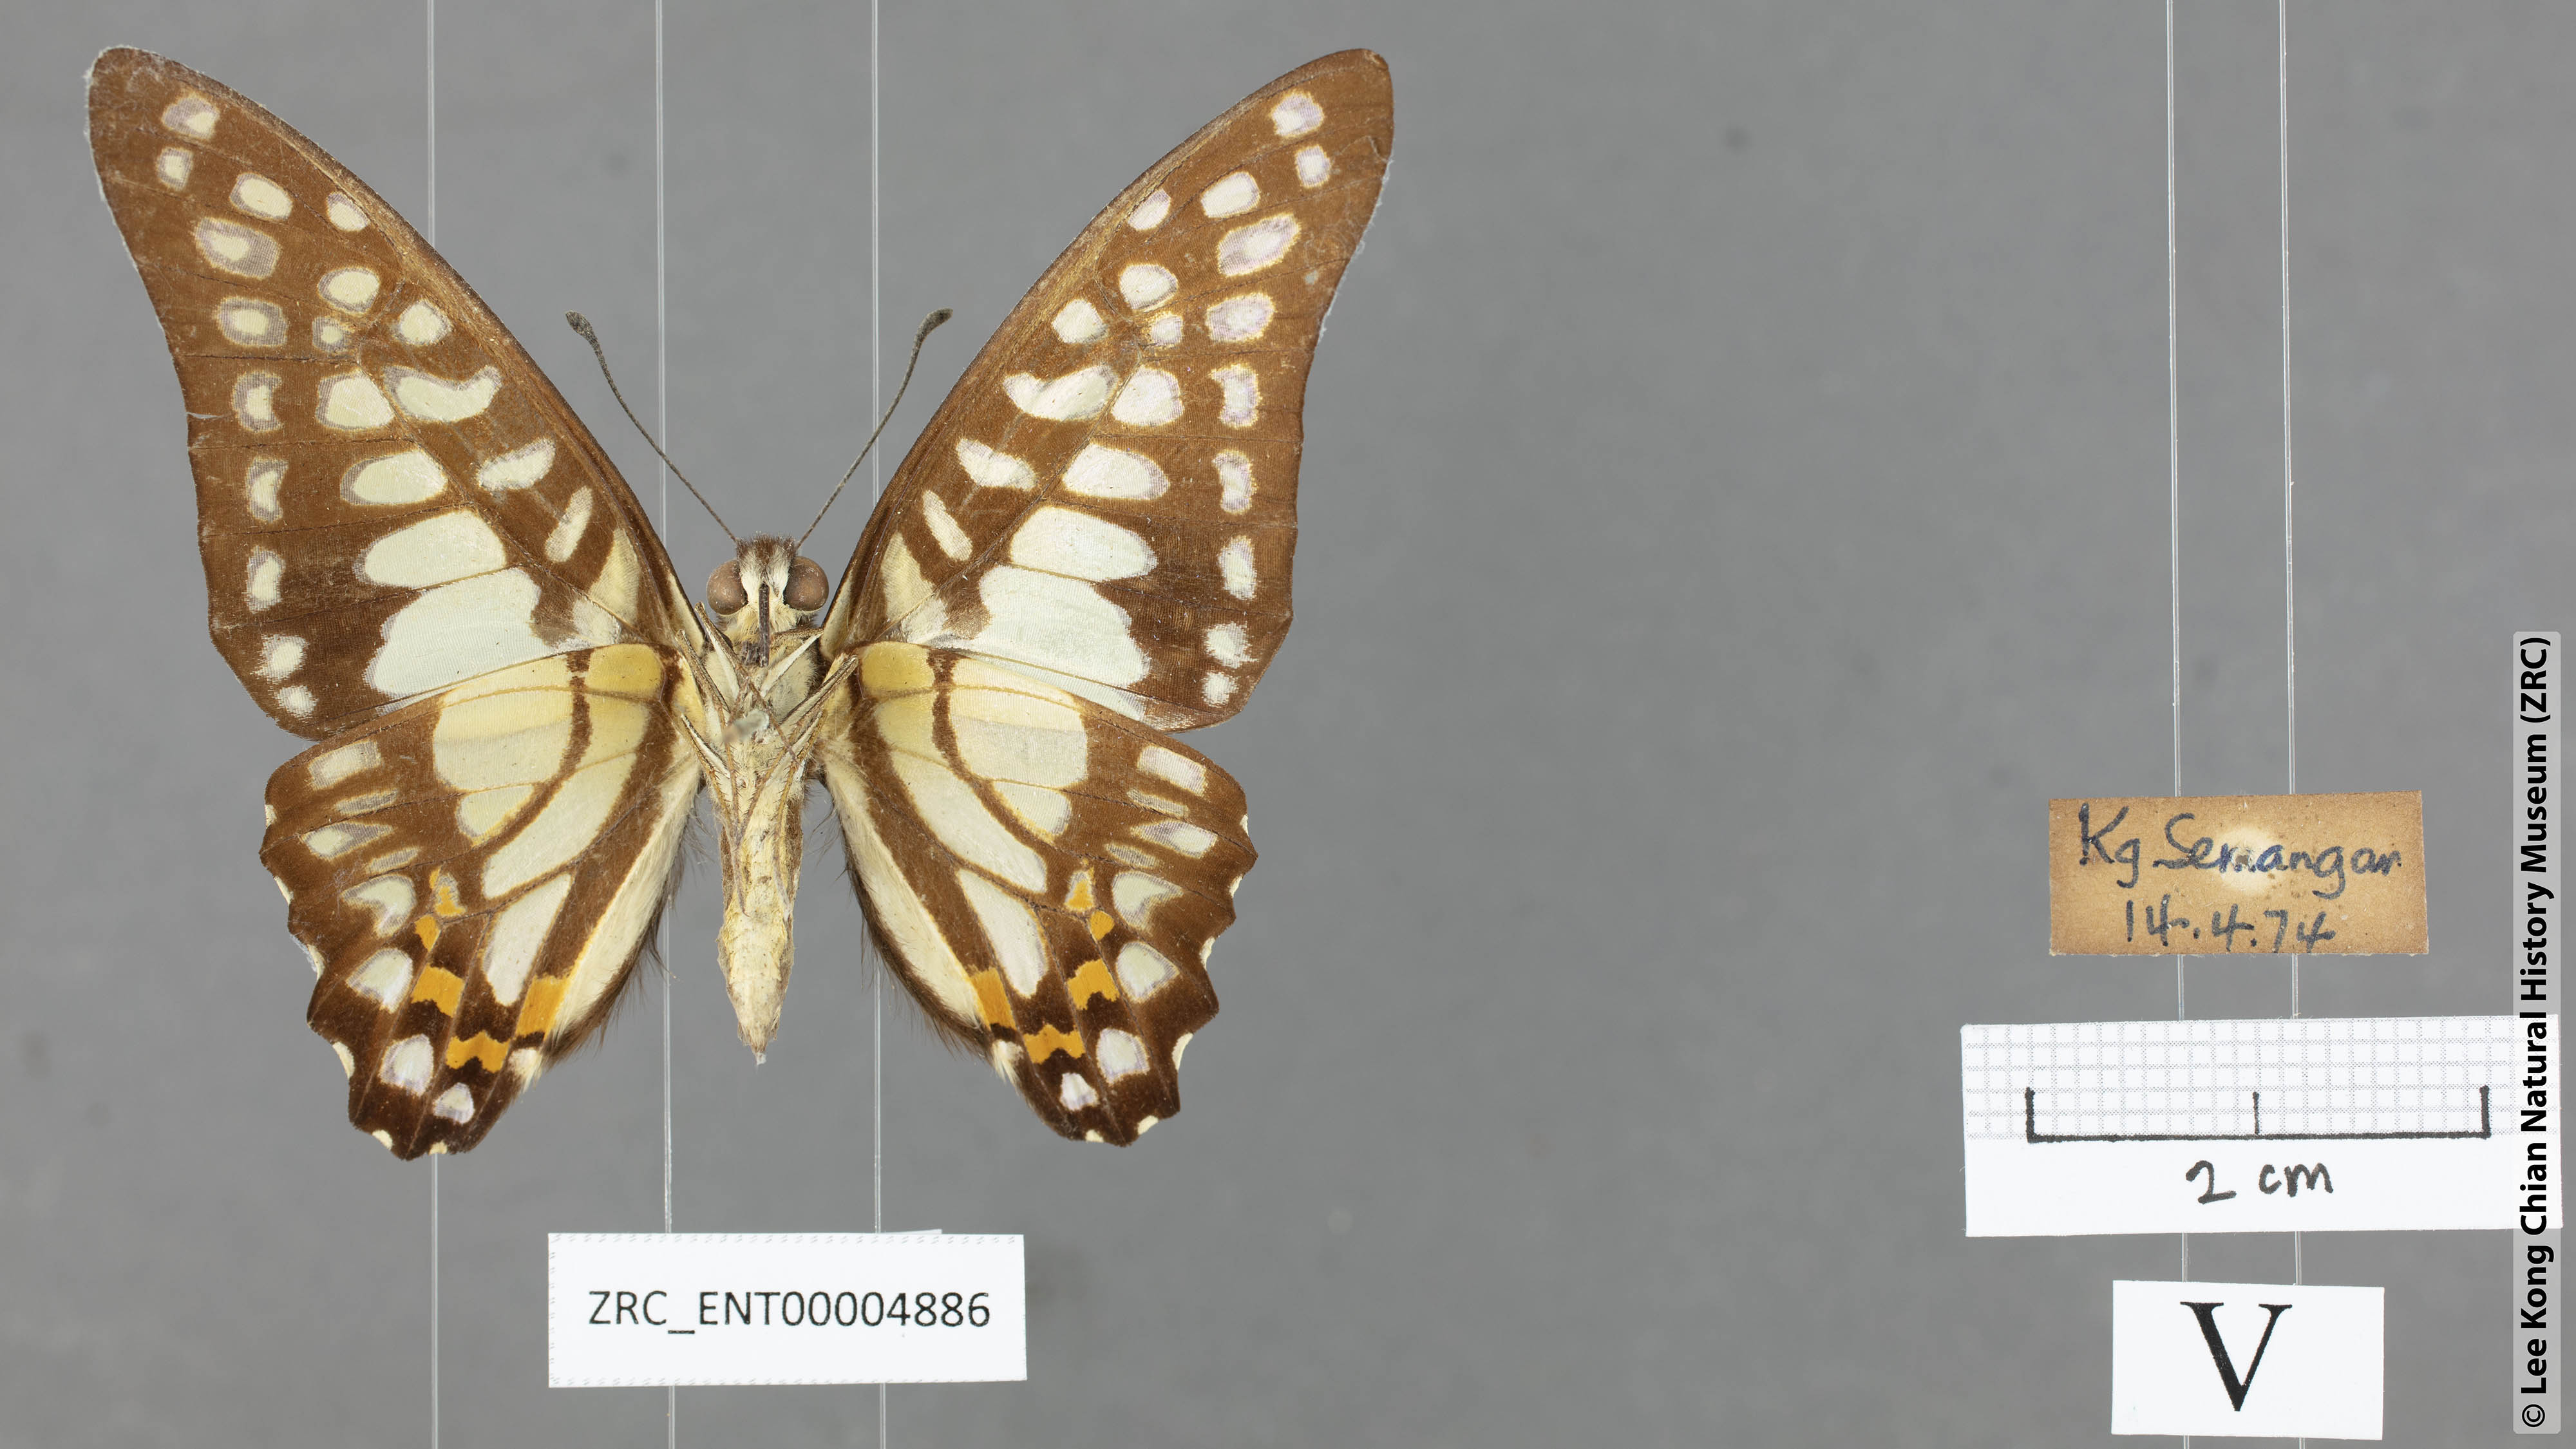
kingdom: Animalia
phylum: Arthropoda
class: Insecta
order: Lepidoptera
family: Papilionidae
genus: Graphium
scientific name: Graphium bathycles
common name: Veined jay
